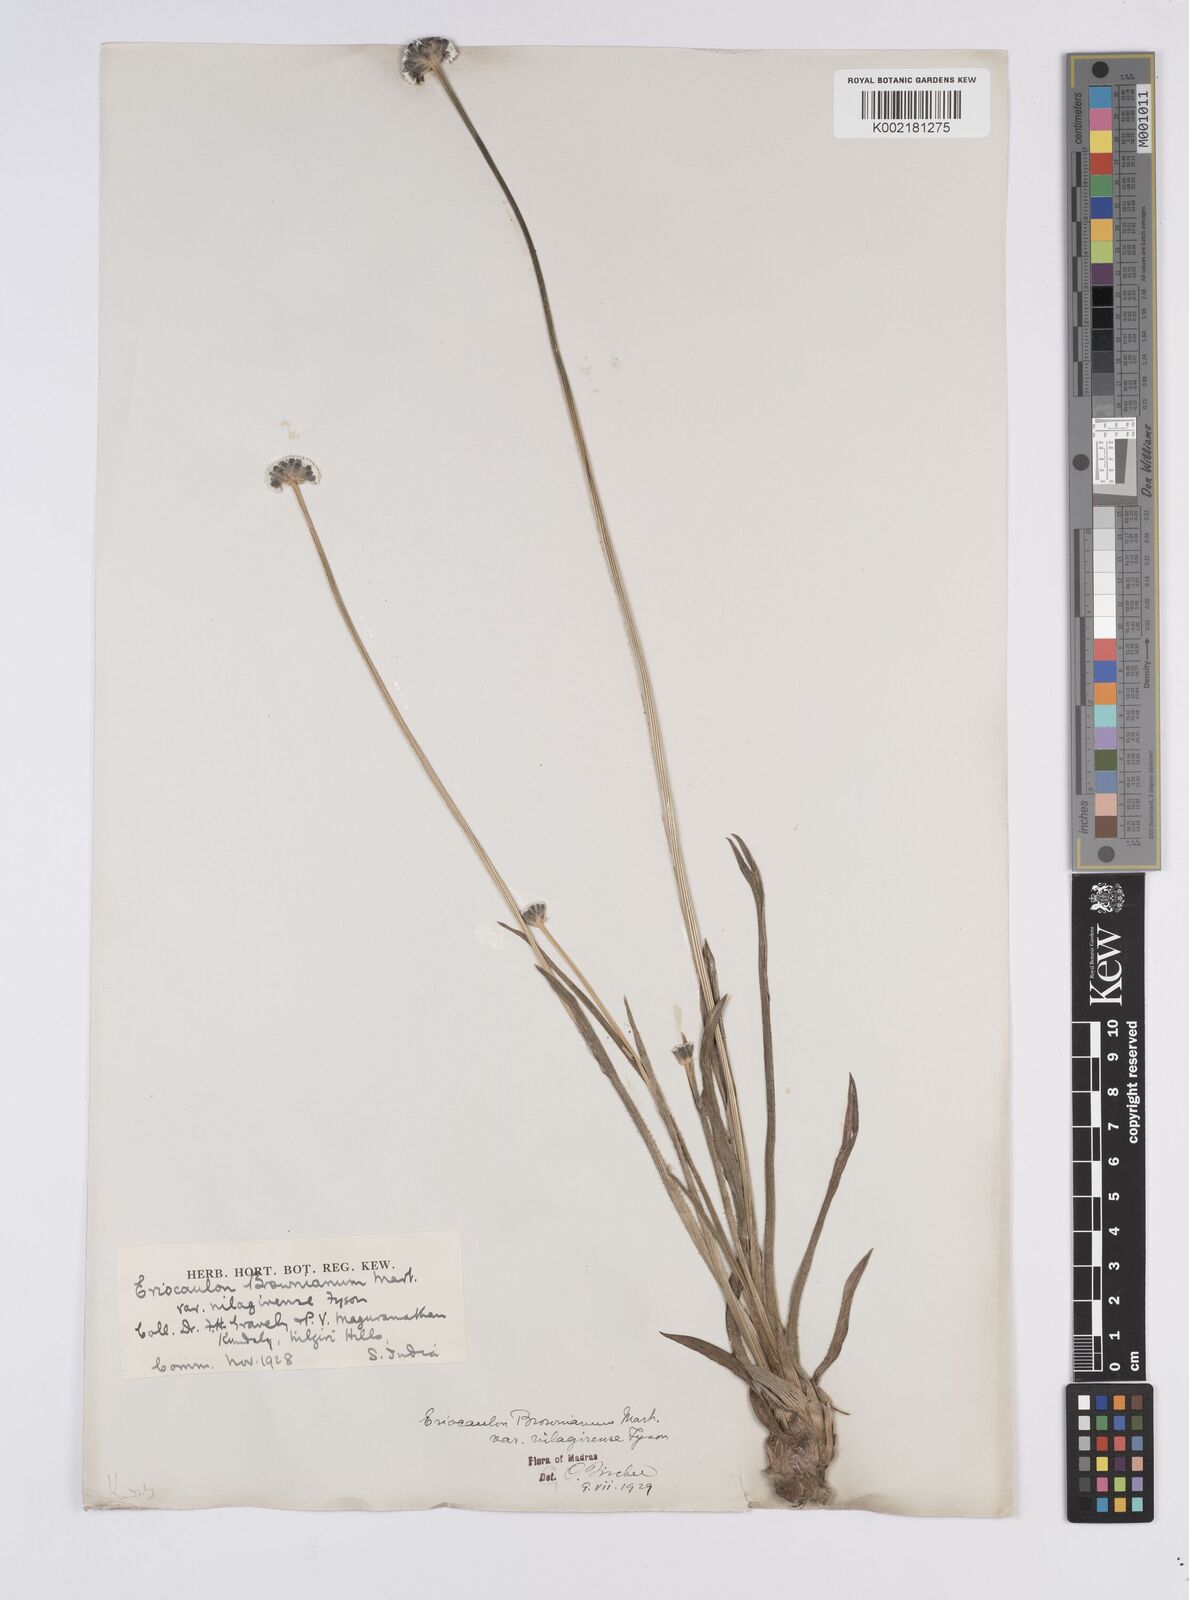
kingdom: Plantae
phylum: Tracheophyta
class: Liliopsida
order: Poales
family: Eriocaulaceae
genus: Eriocaulon
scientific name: Eriocaulon brownianum
